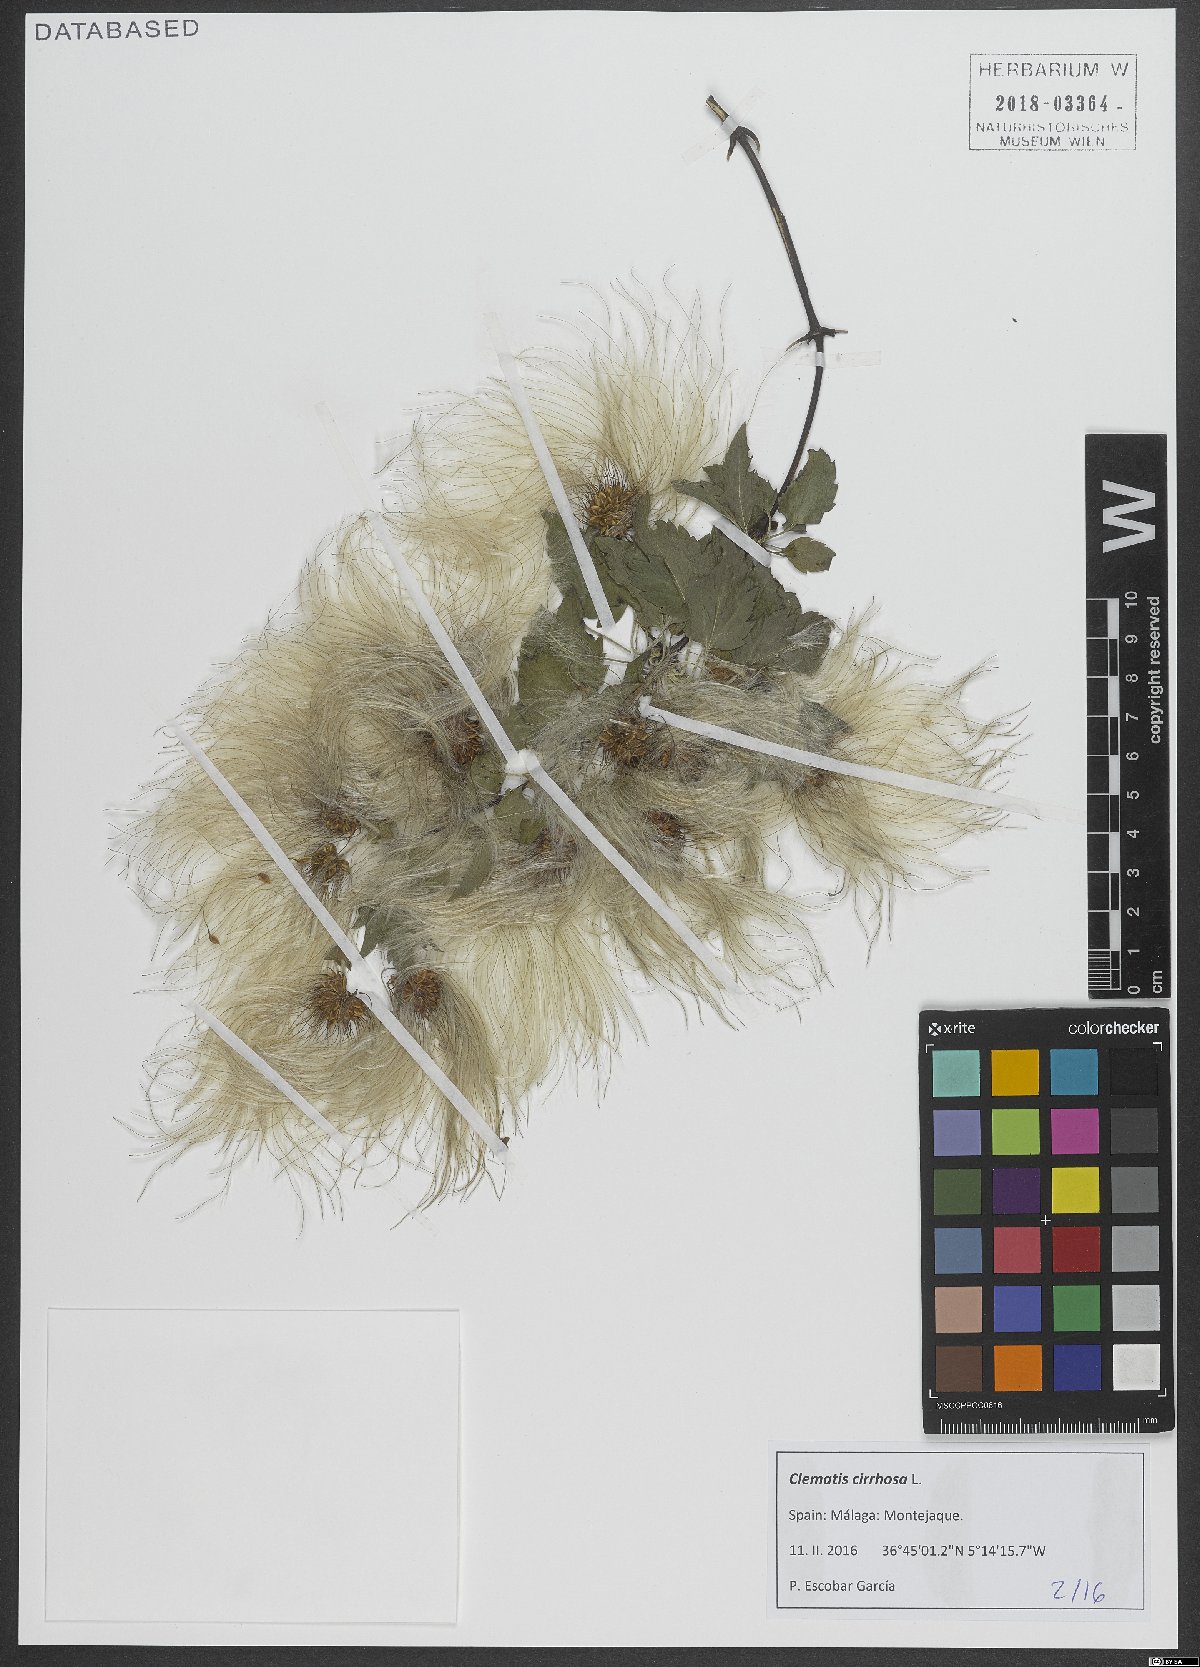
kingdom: Plantae
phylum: Tracheophyta
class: Magnoliopsida
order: Ranunculales
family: Ranunculaceae
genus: Clematis
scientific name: Clematis cirrhosa
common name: Early virgin's-bower
